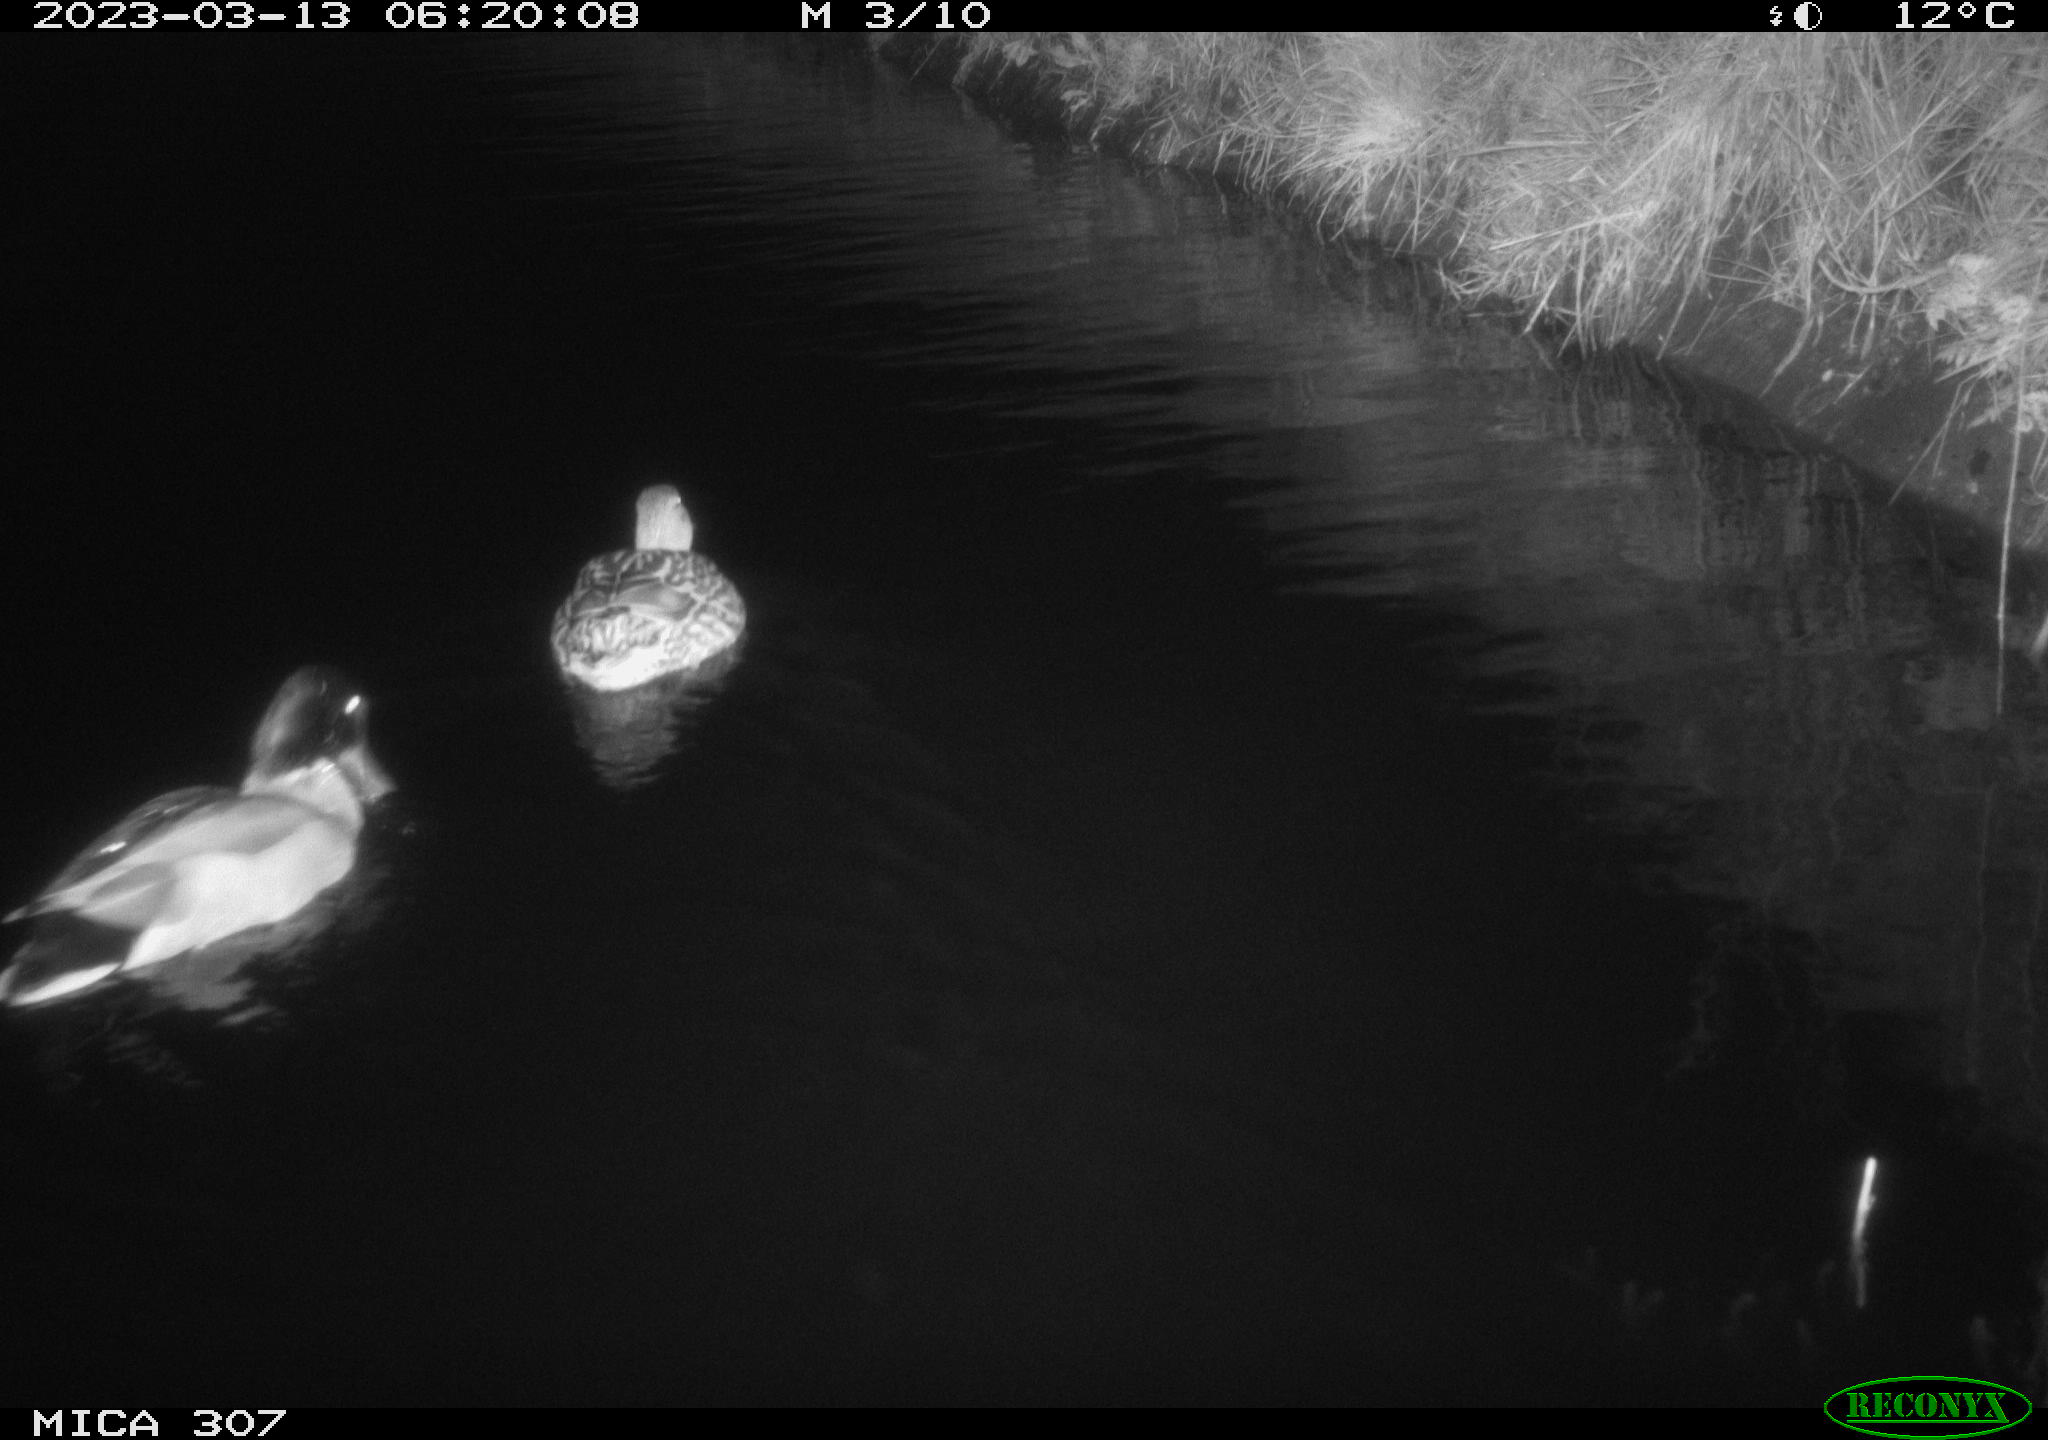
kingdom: Animalia
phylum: Chordata
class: Aves
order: Anseriformes
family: Anatidae
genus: Anas
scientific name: Anas
